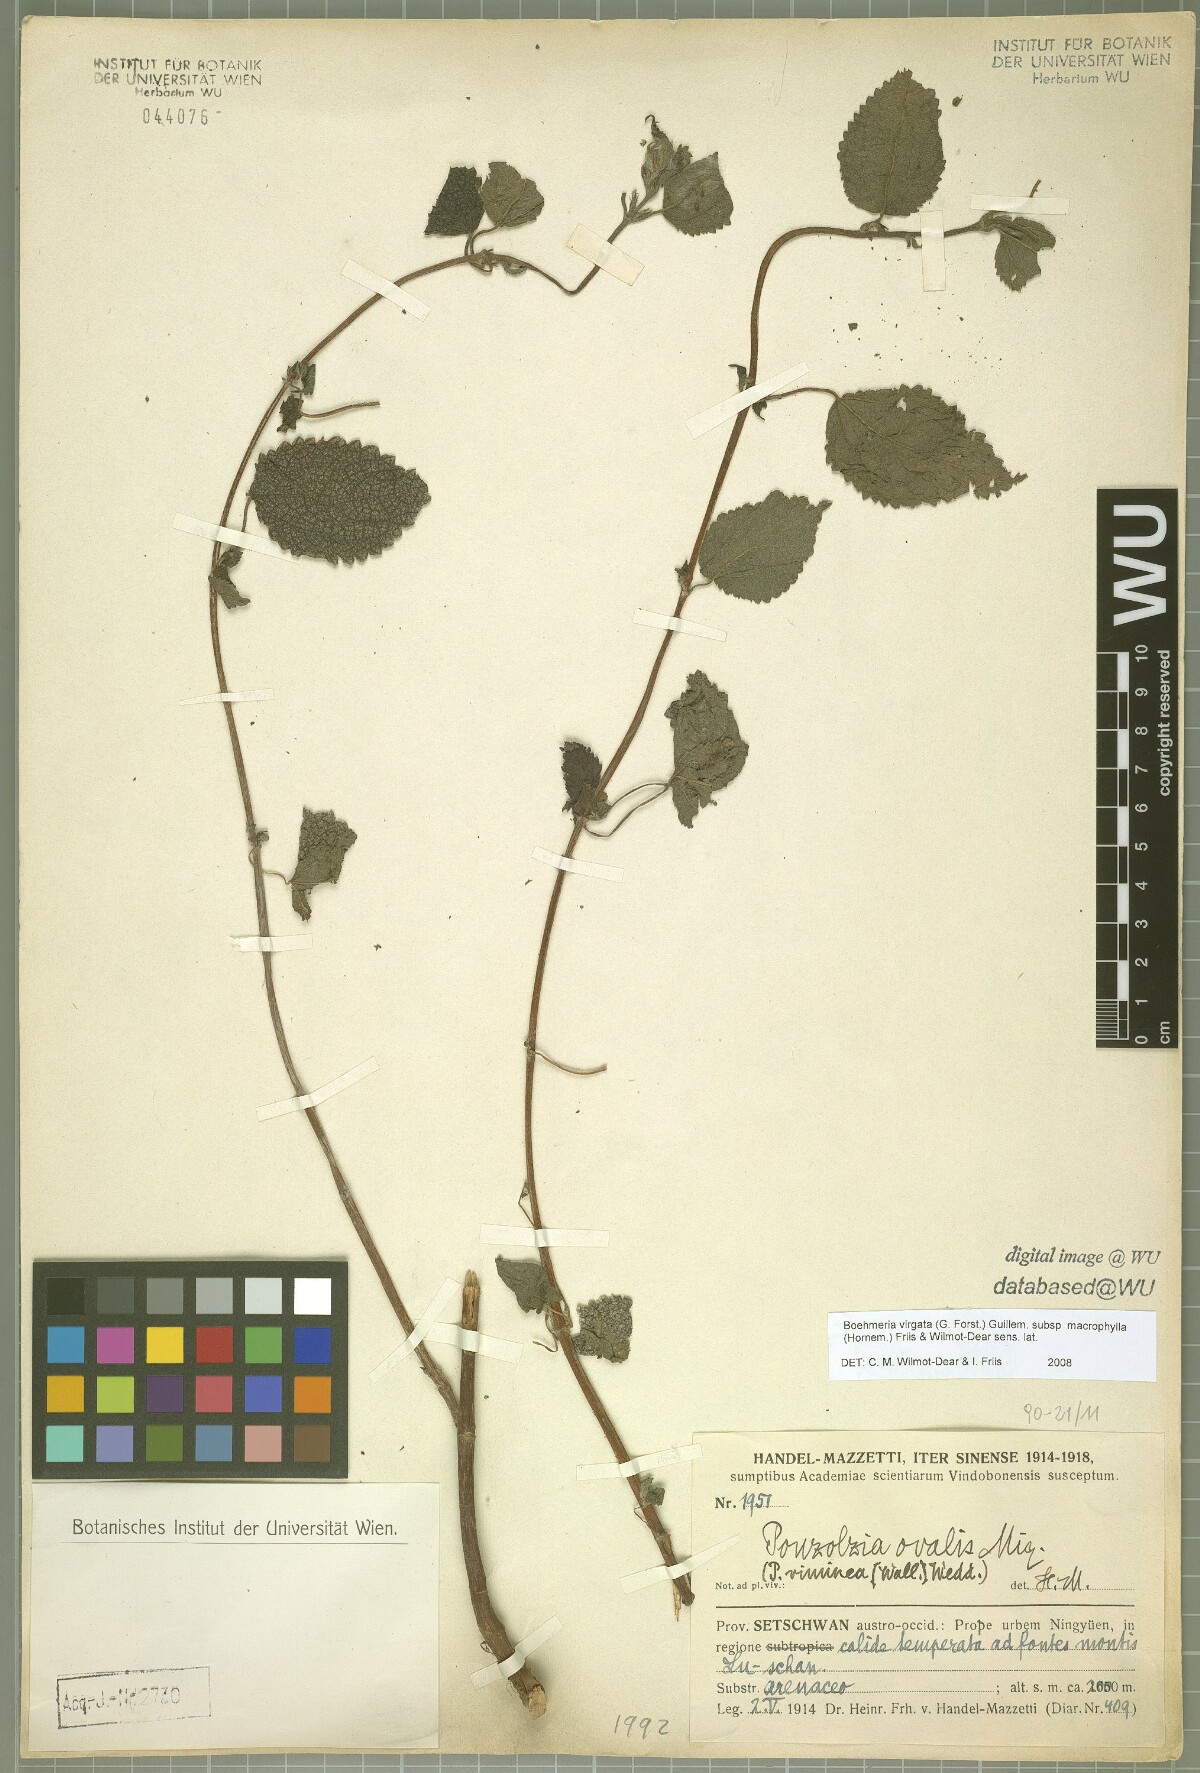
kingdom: Plantae
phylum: Tracheophyta
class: Magnoliopsida
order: Rosales
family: Urticaceae
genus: Boehmeria
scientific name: Boehmeria virgata
